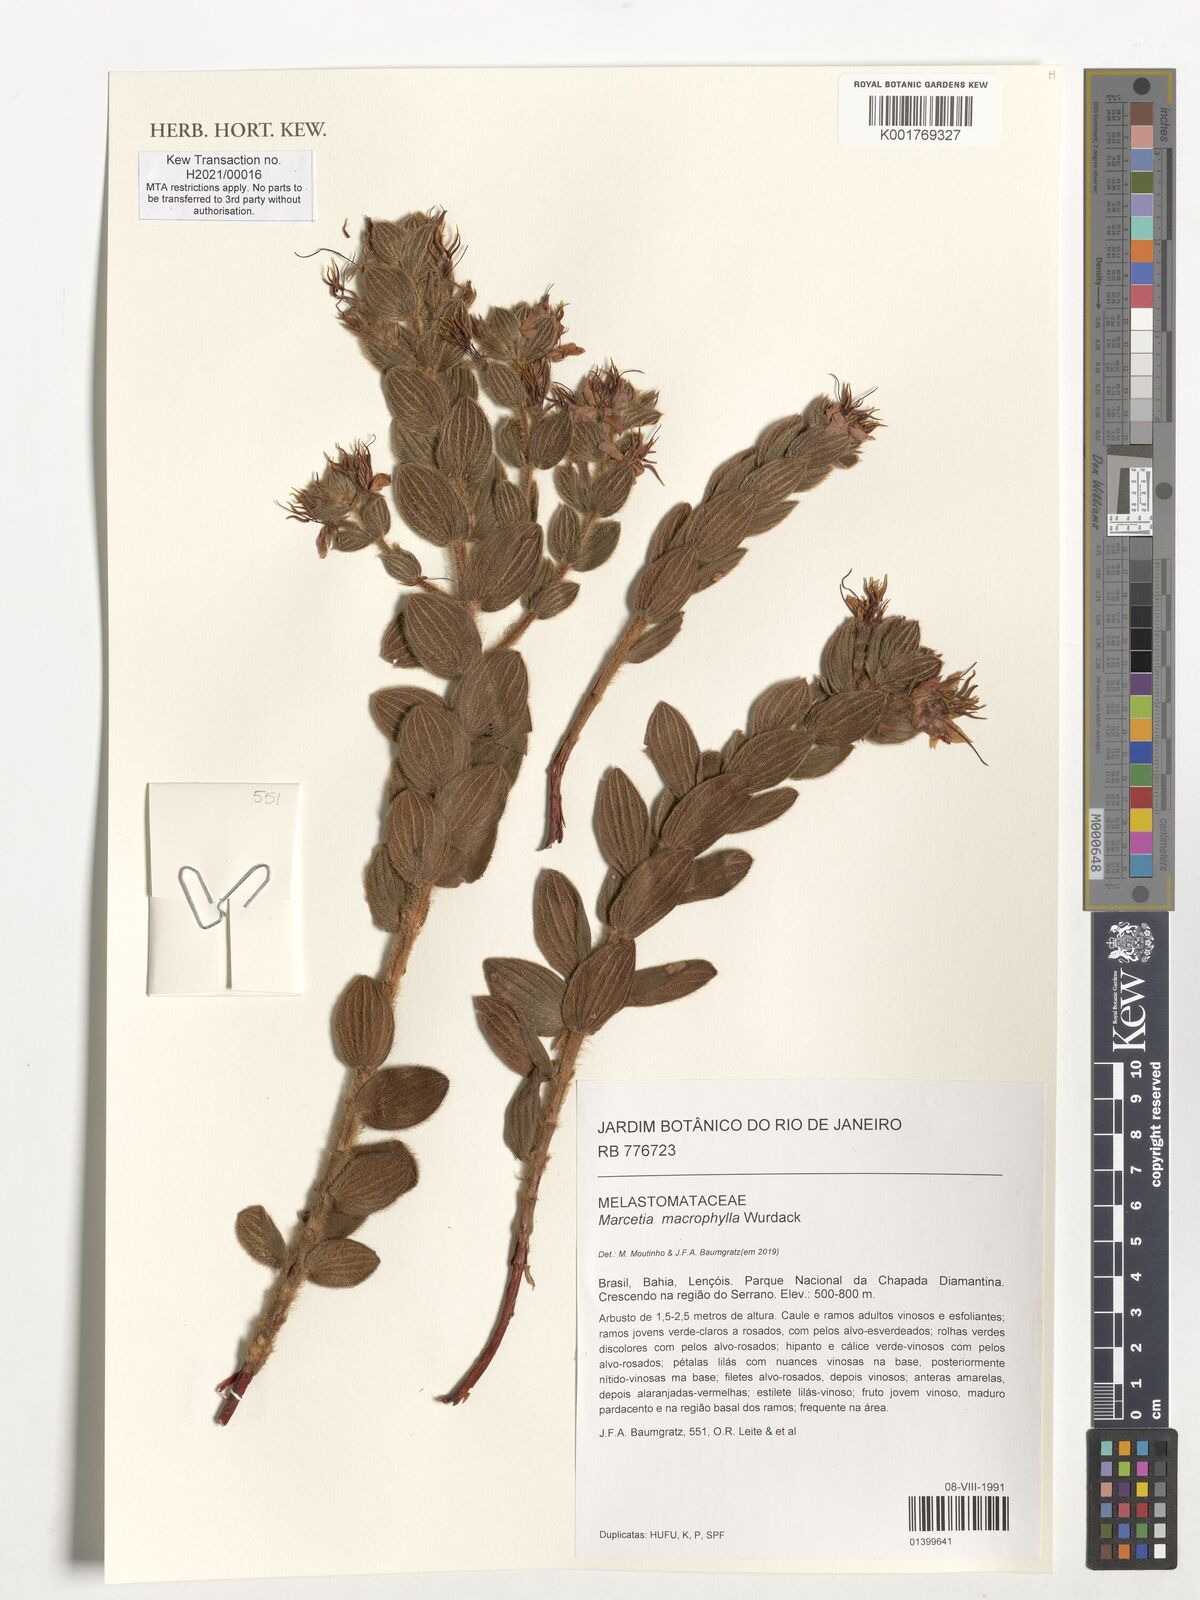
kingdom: Plantae
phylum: Tracheophyta
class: Magnoliopsida
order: Myrtales
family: Melastomataceae
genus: Marcetia
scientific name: Marcetia macrophylla
